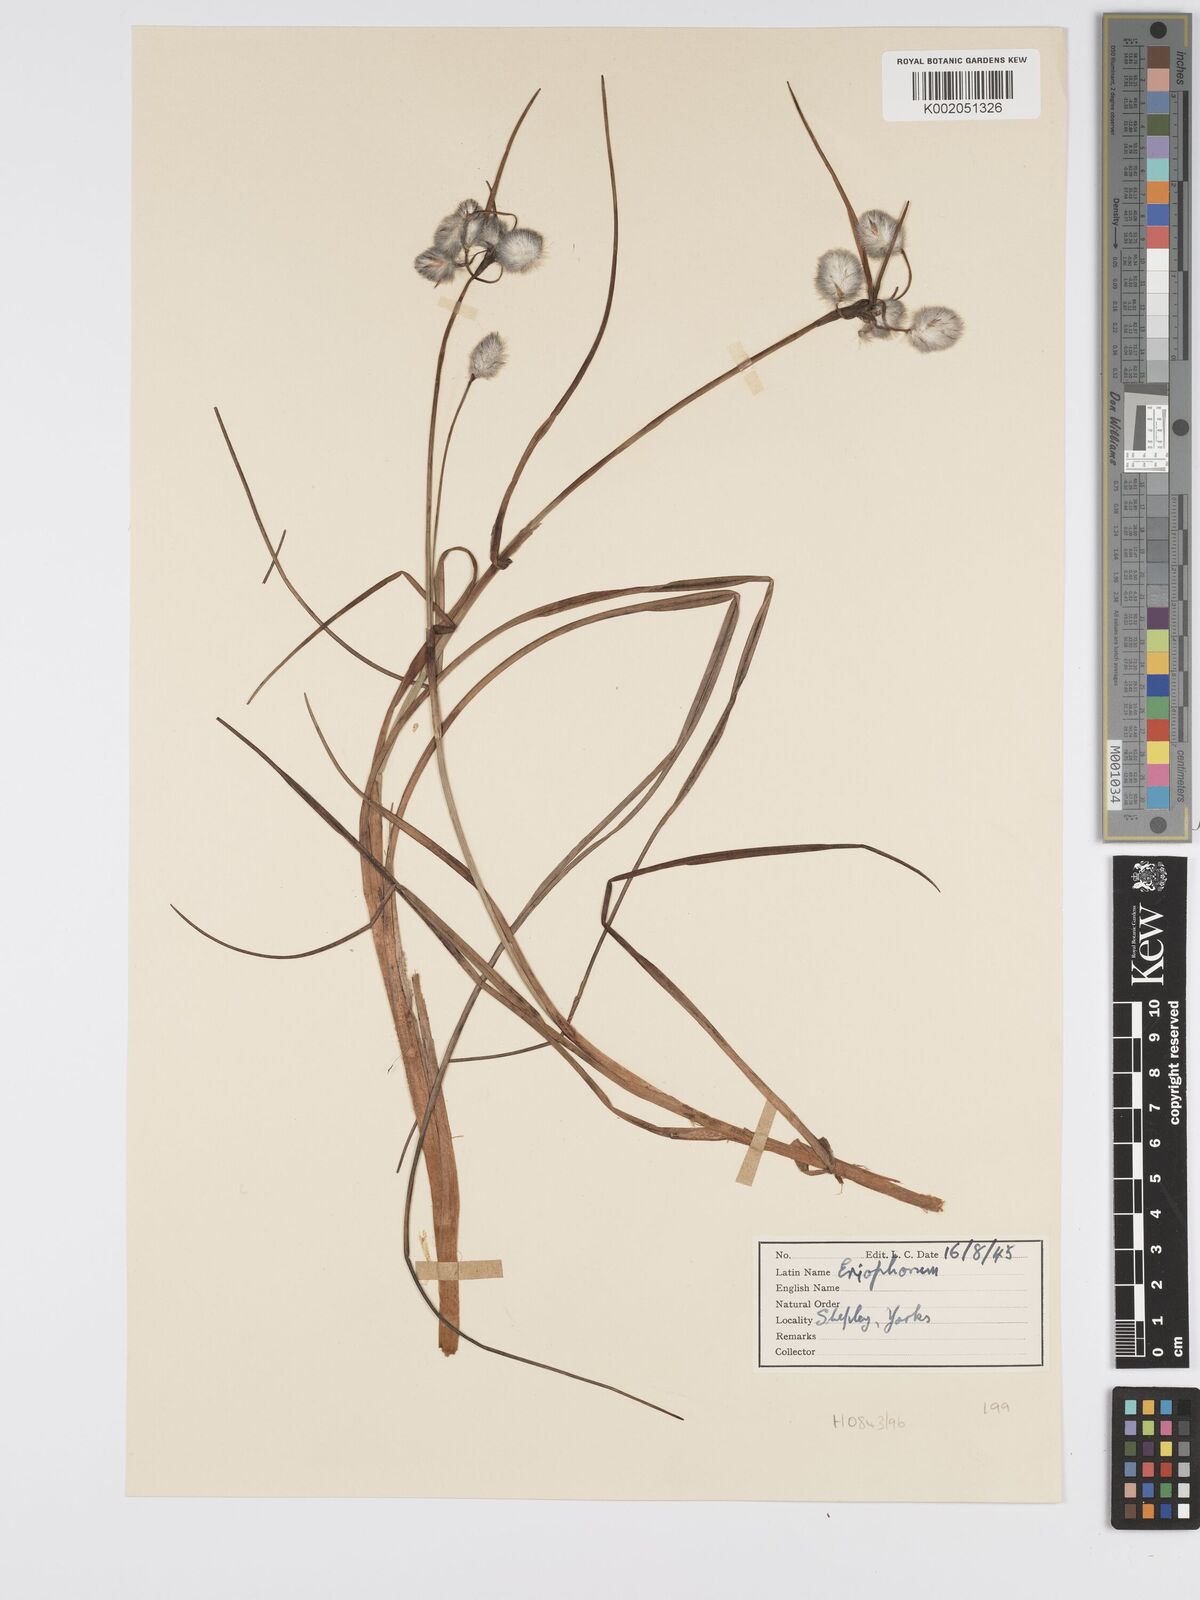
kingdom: Plantae
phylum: Tracheophyta
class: Liliopsida
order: Poales
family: Cyperaceae
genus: Eriophorum
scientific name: Eriophorum
